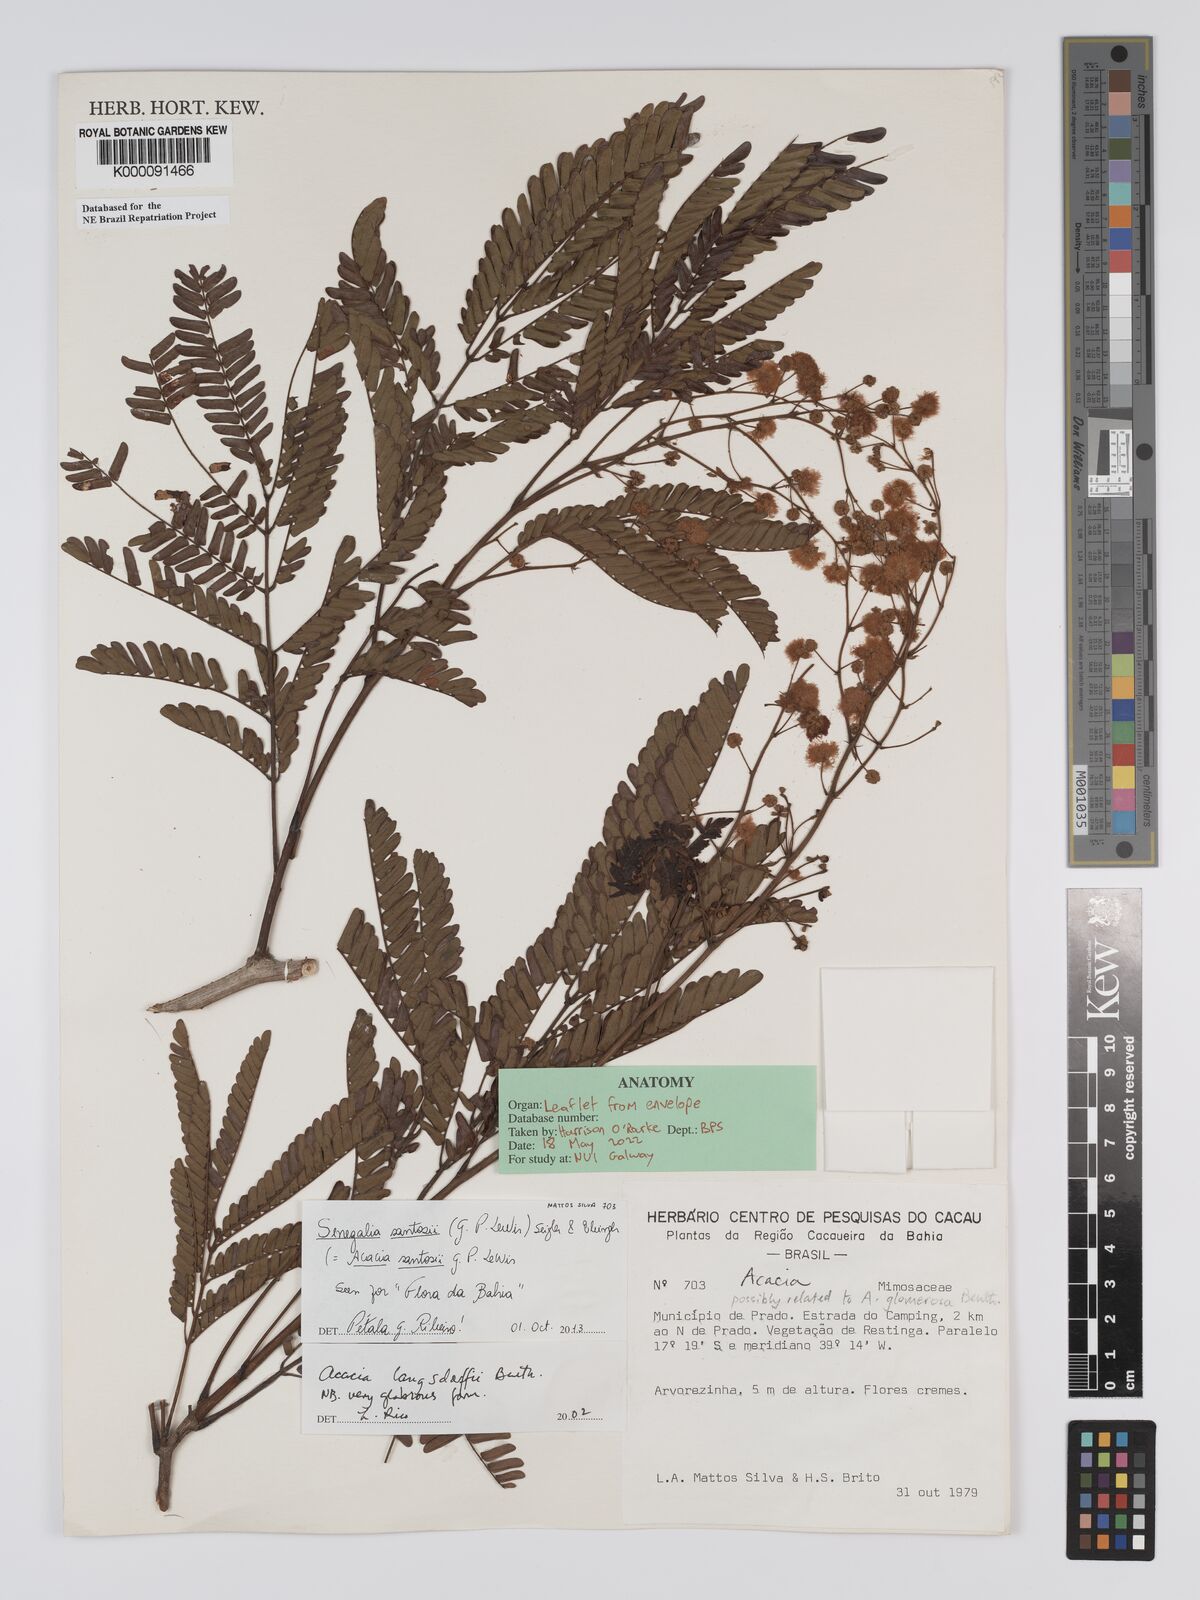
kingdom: Plantae
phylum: Tracheophyta
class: Magnoliopsida
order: Fabales
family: Fabaceae
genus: Senegalia
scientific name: Senegalia langsdorffii
